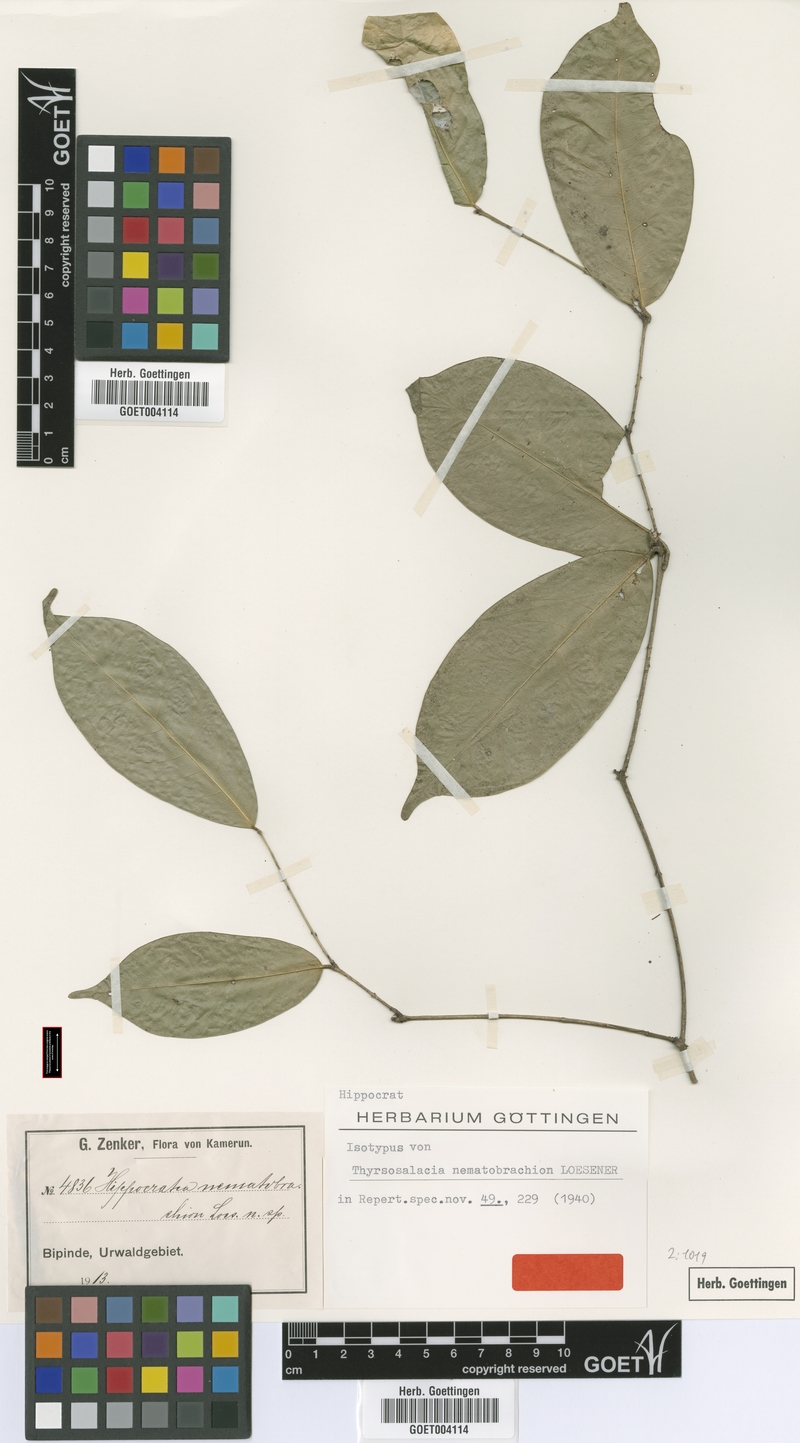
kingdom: Plantae
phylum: Tracheophyta
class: Magnoliopsida
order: Celastrales
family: Celastraceae
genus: Thyrsosalacia
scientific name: Thyrsosalacia nematobrachion
